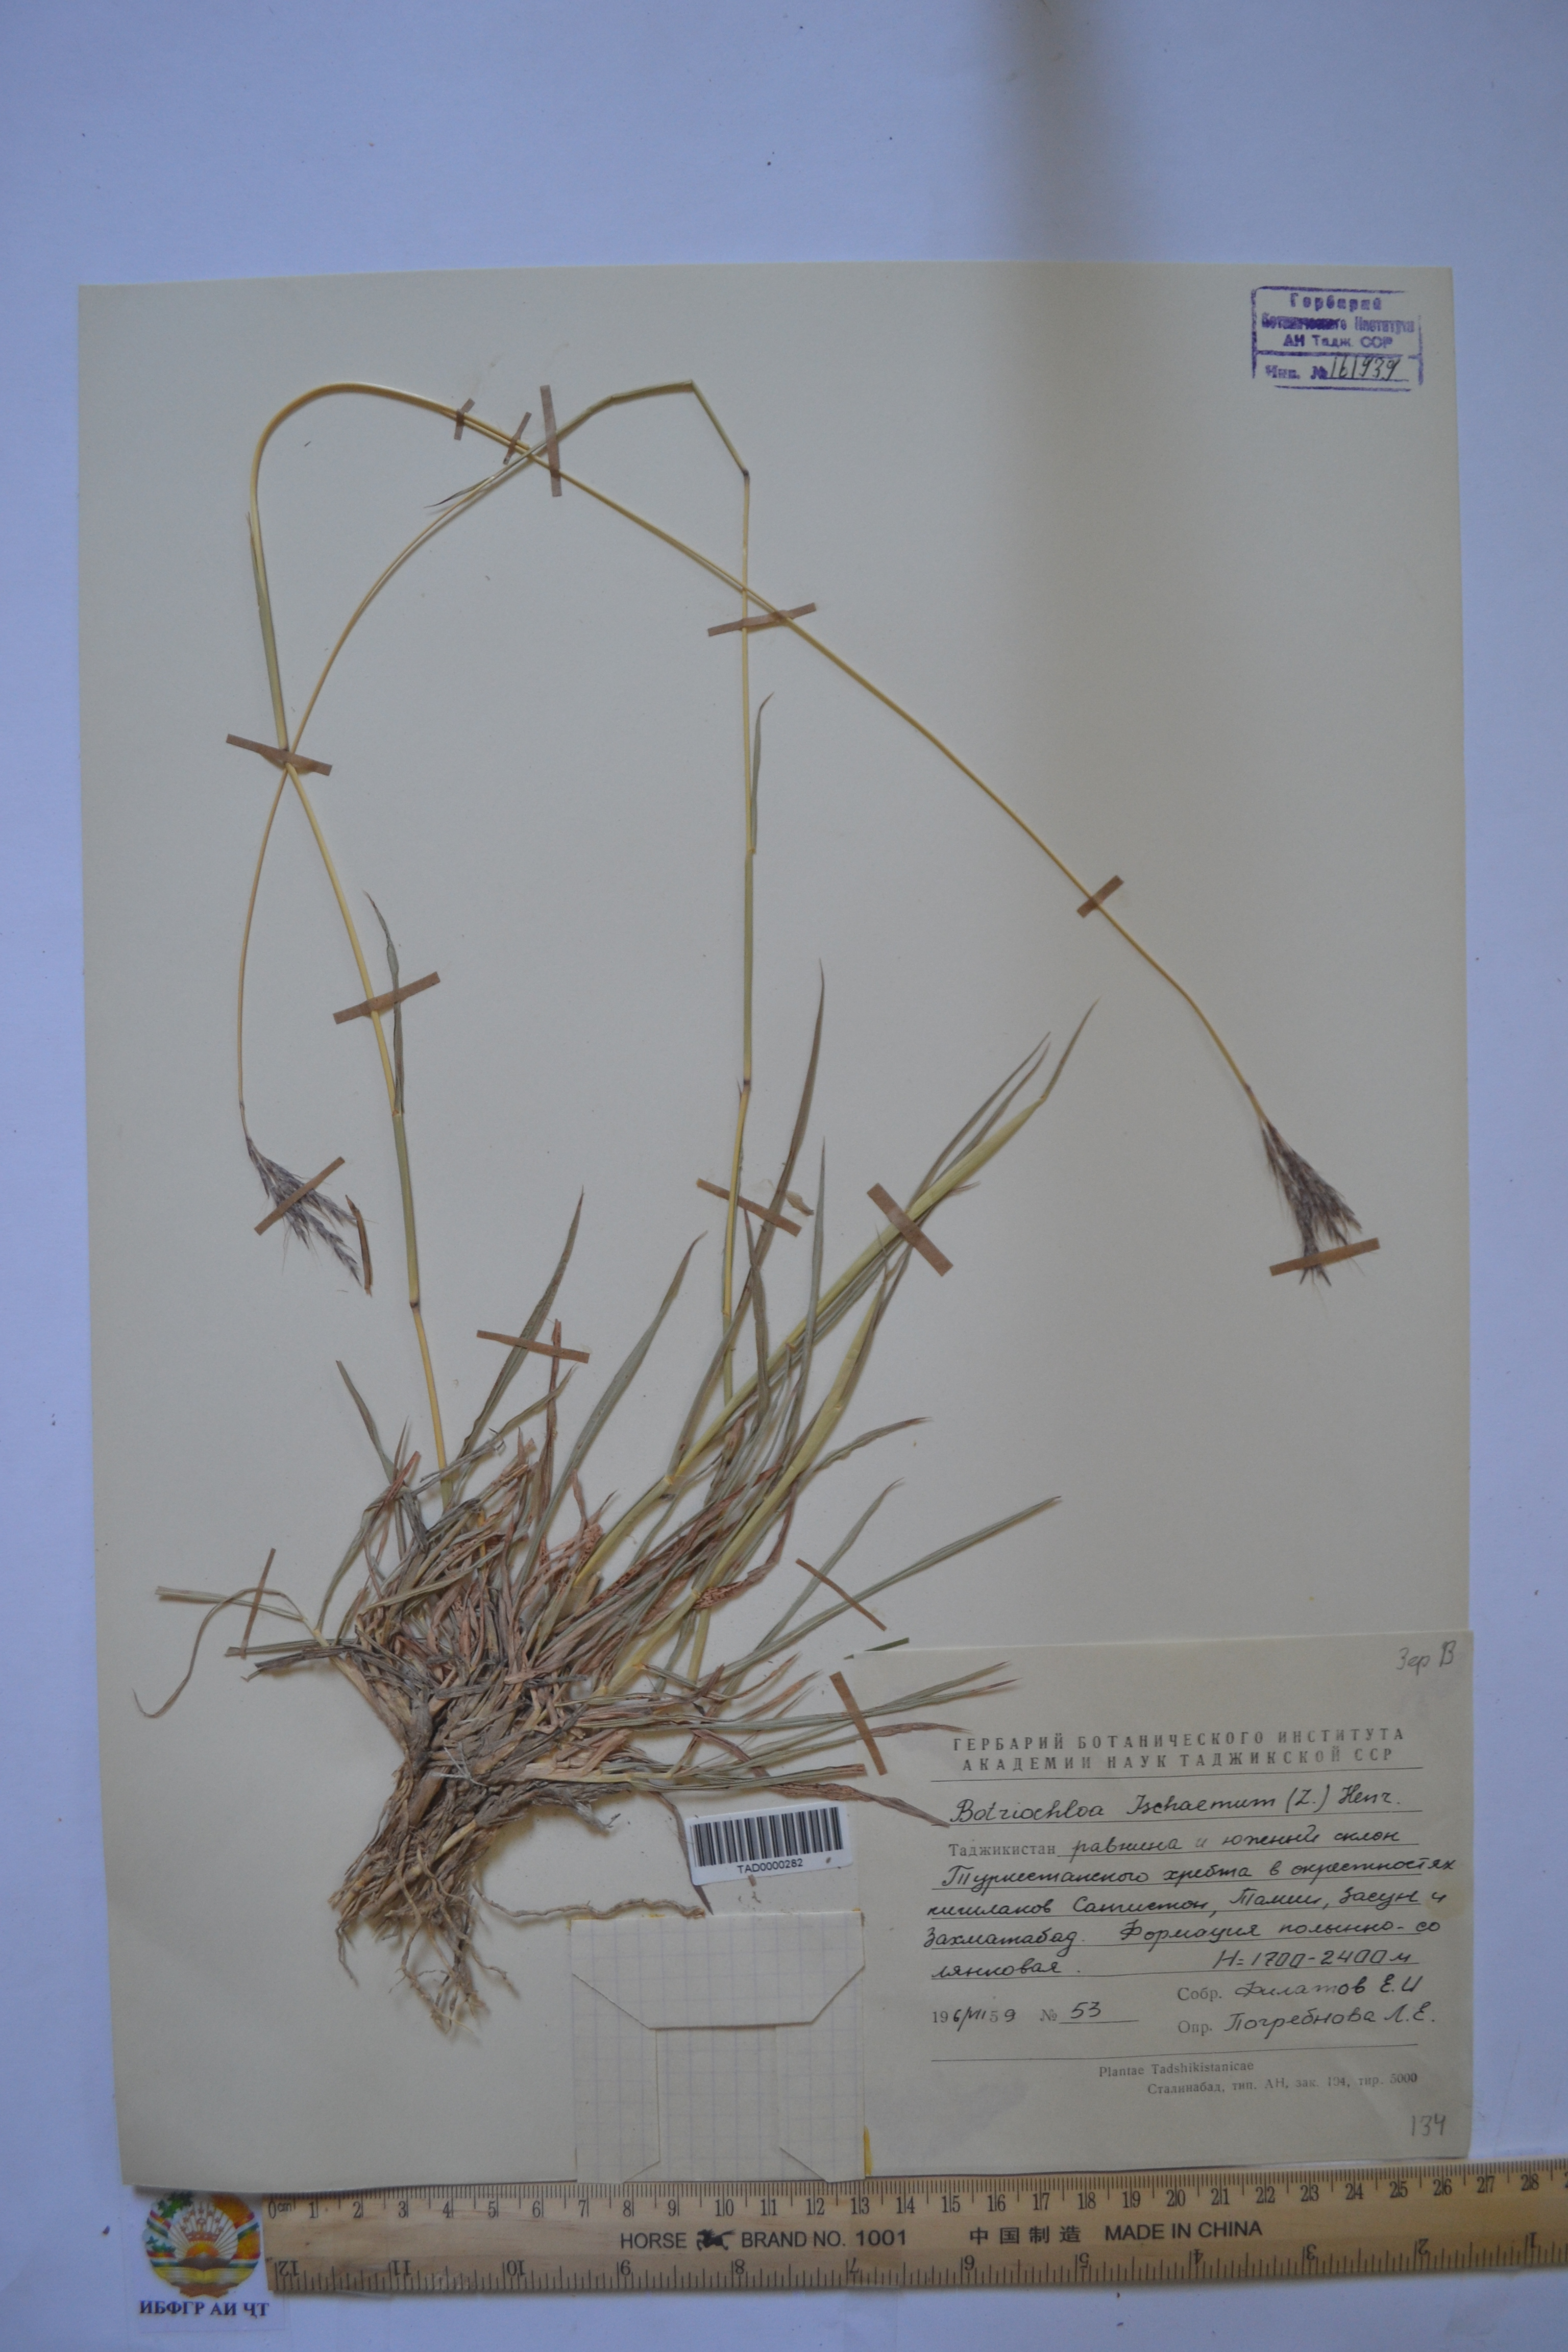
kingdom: Plantae
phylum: Tracheophyta
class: Liliopsida
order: Poales
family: Poaceae
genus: Bothriochloa
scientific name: Bothriochloa ischaemum
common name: Yellow bluestem
